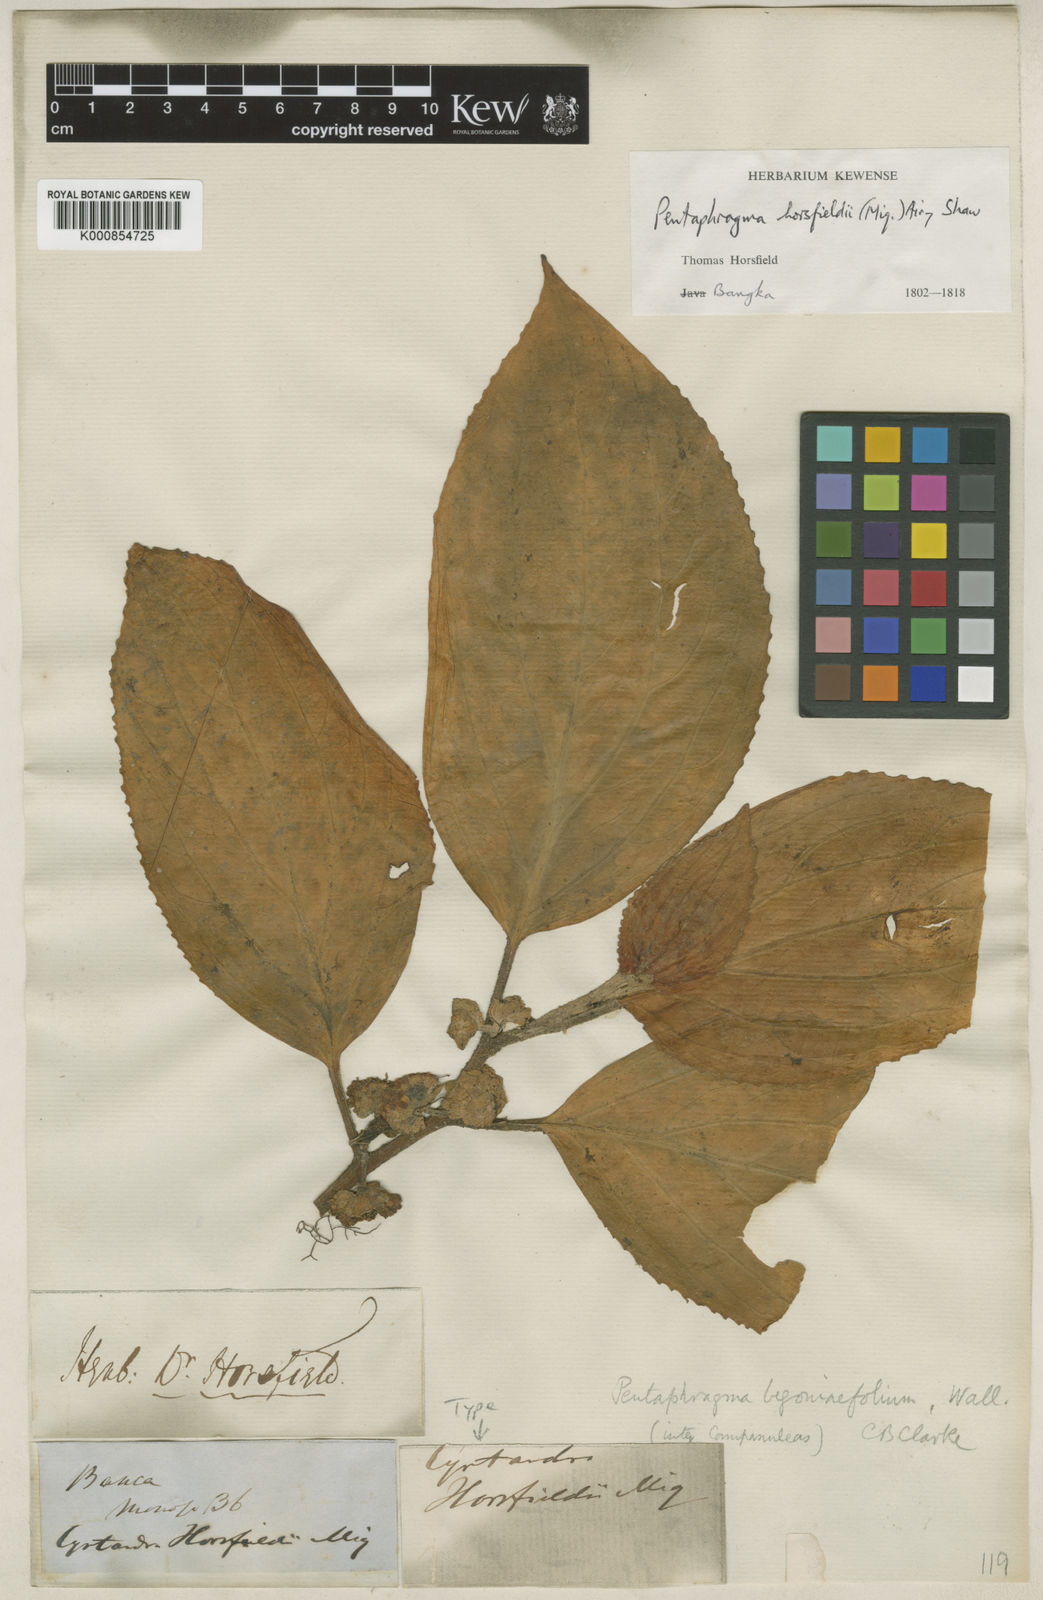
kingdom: Plantae
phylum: Tracheophyta
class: Magnoliopsida
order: Asterales
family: Pentaphragmataceae
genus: Pentaphragma
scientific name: Pentaphragma horsfieldii
